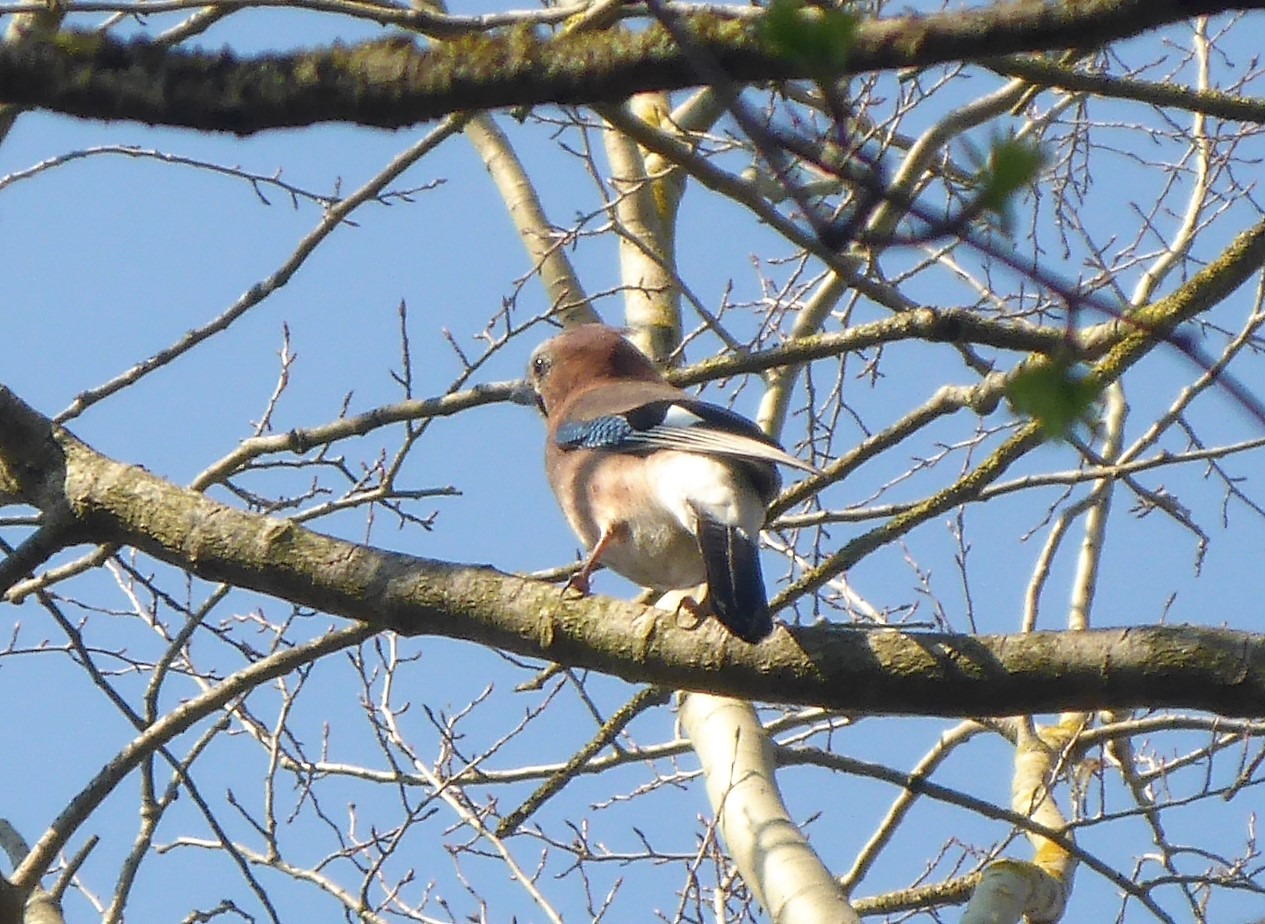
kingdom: Animalia
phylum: Chordata
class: Aves
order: Passeriformes
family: Corvidae
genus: Garrulus
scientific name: Garrulus glandarius
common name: Skovskade
